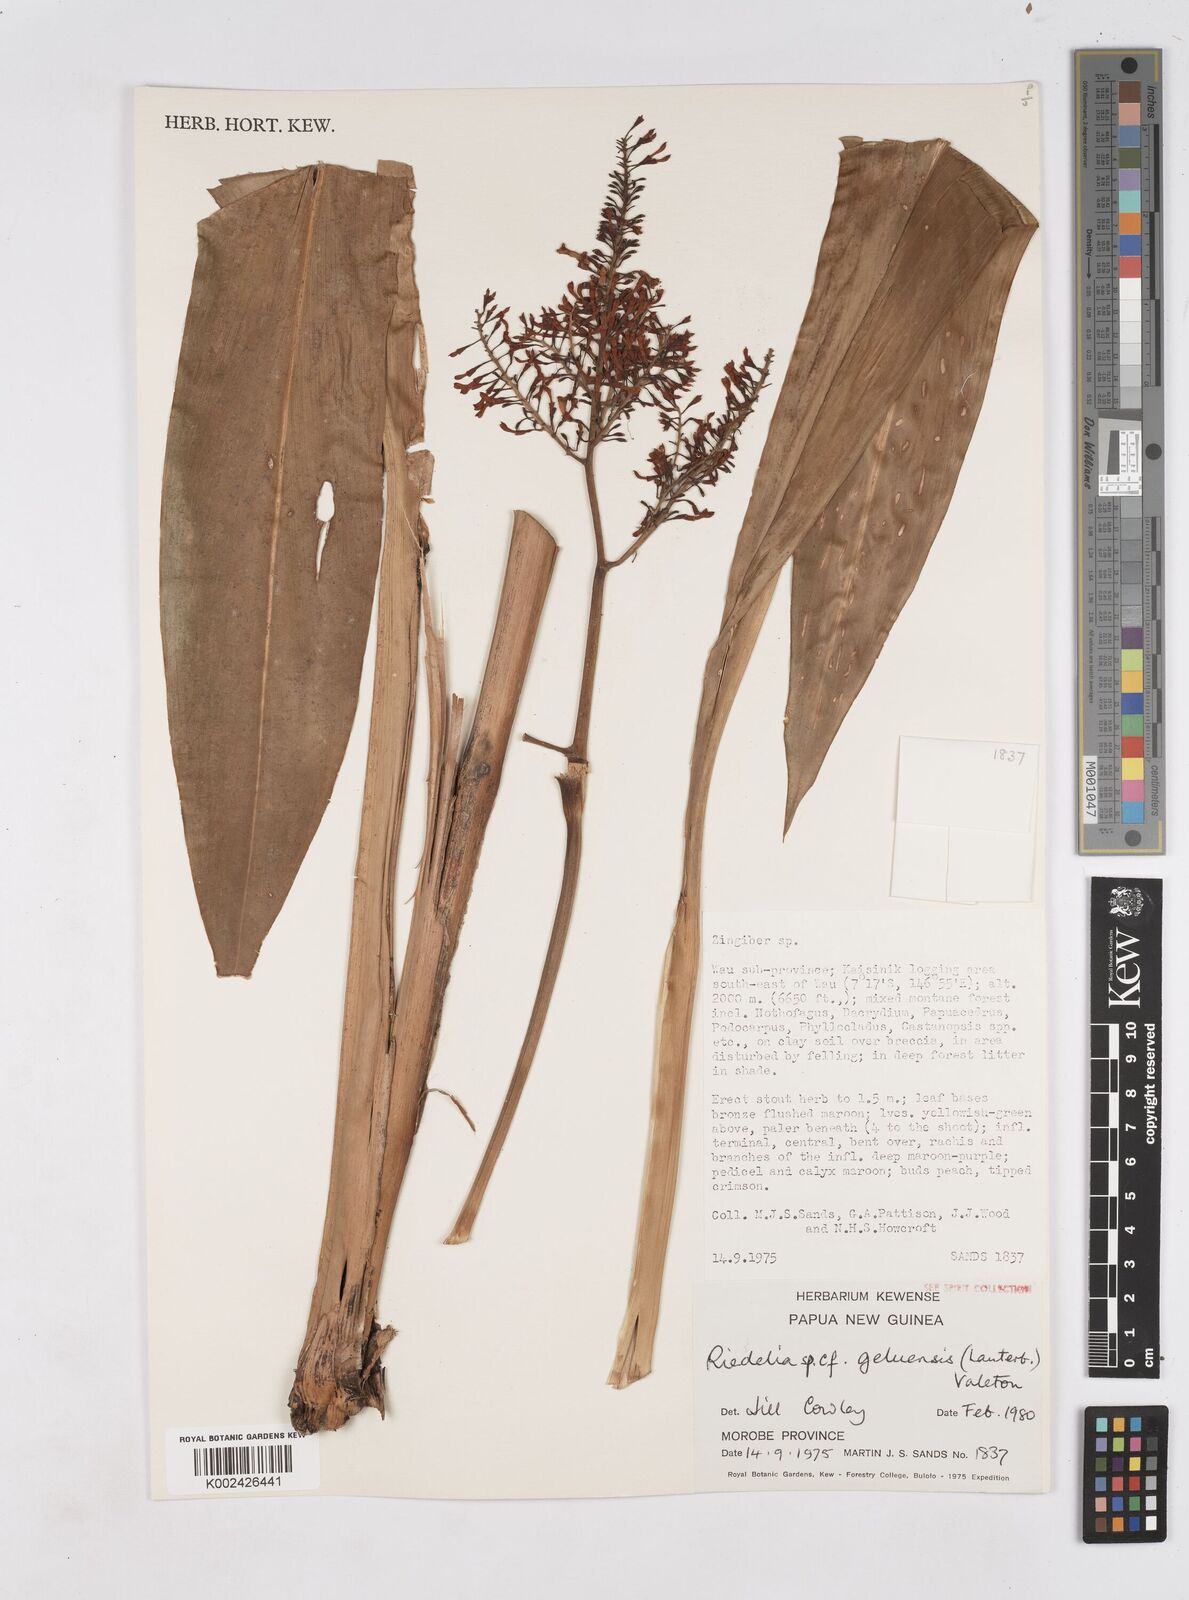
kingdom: Plantae
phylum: Tracheophyta
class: Liliopsida
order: Zingiberales
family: Zingiberaceae
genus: Riedelia
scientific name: Riedelia geluensis
